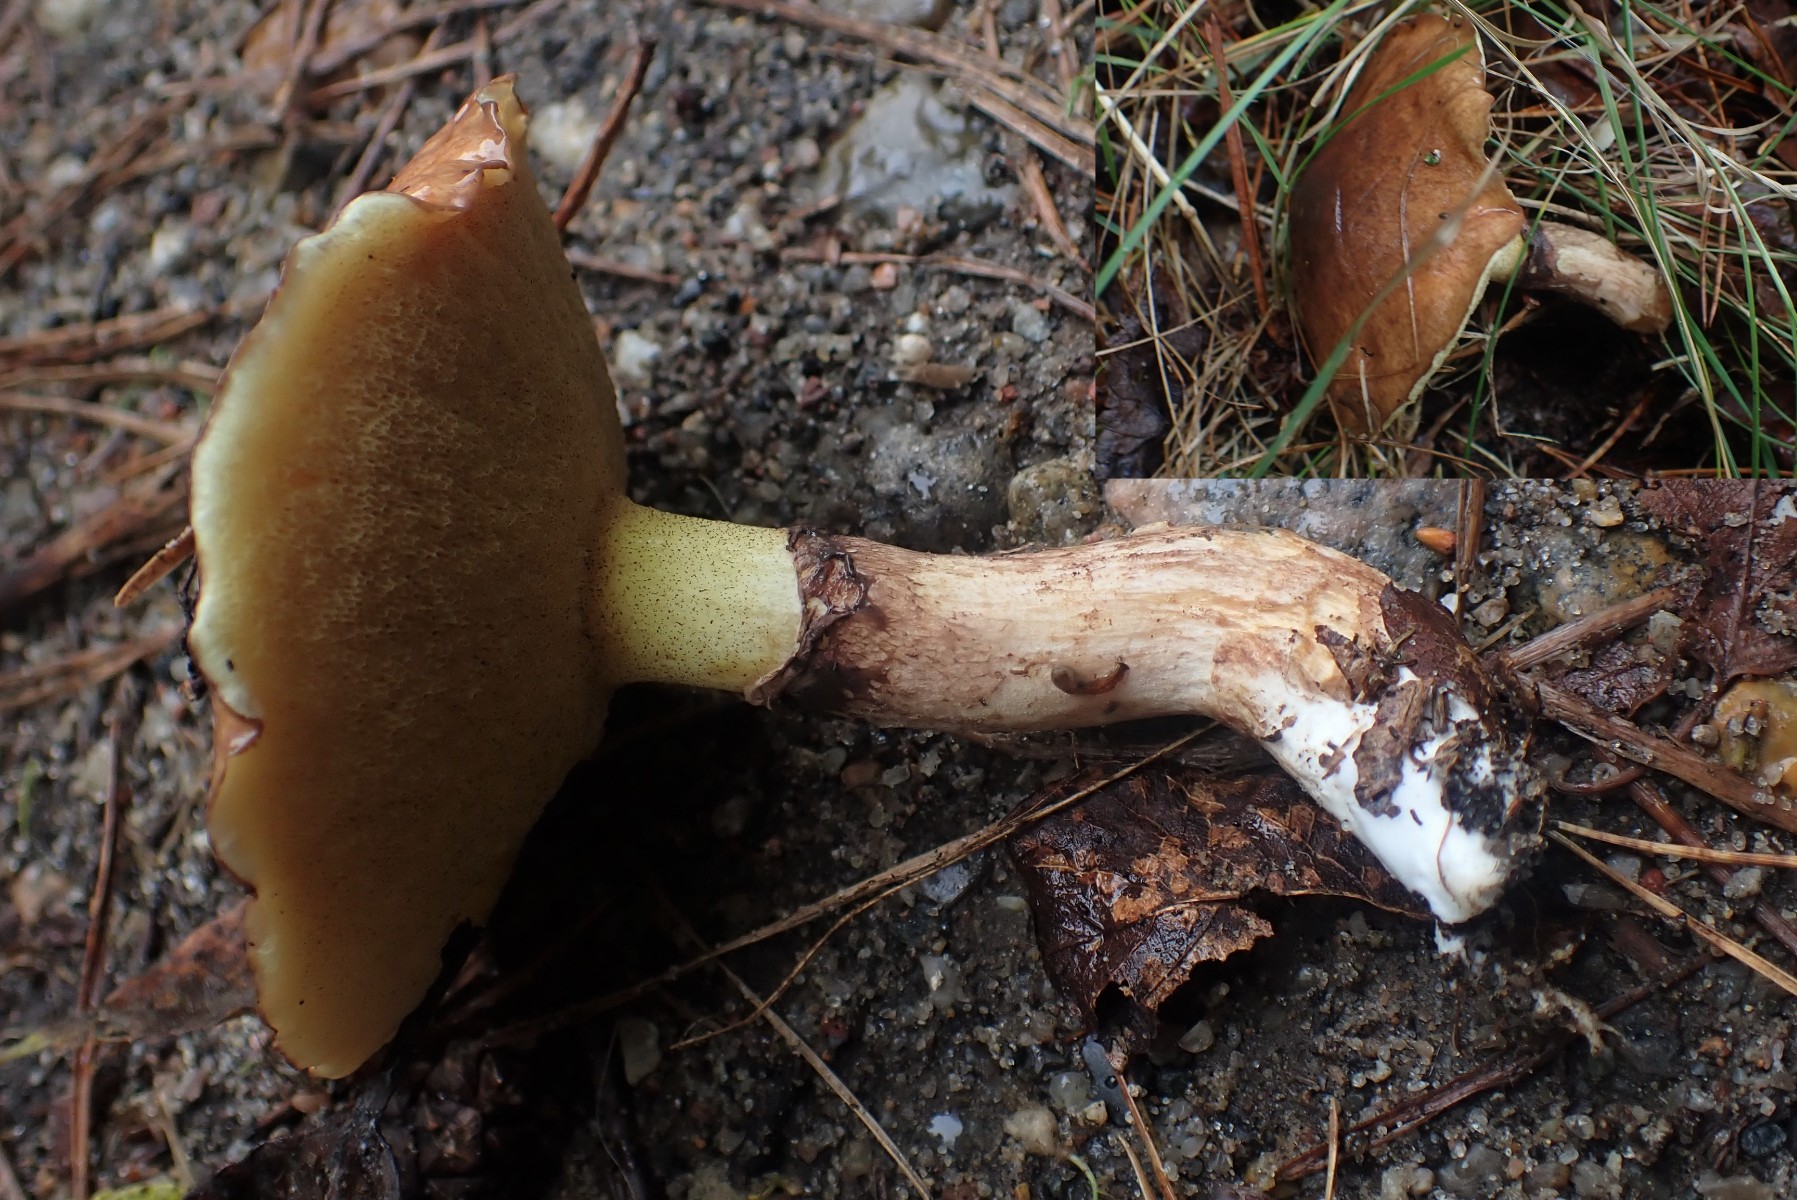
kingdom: Fungi
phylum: Basidiomycota
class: Agaricomycetes
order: Boletales
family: Suillaceae
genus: Suillus
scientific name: Suillus luteus
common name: brungul slimrørhat
